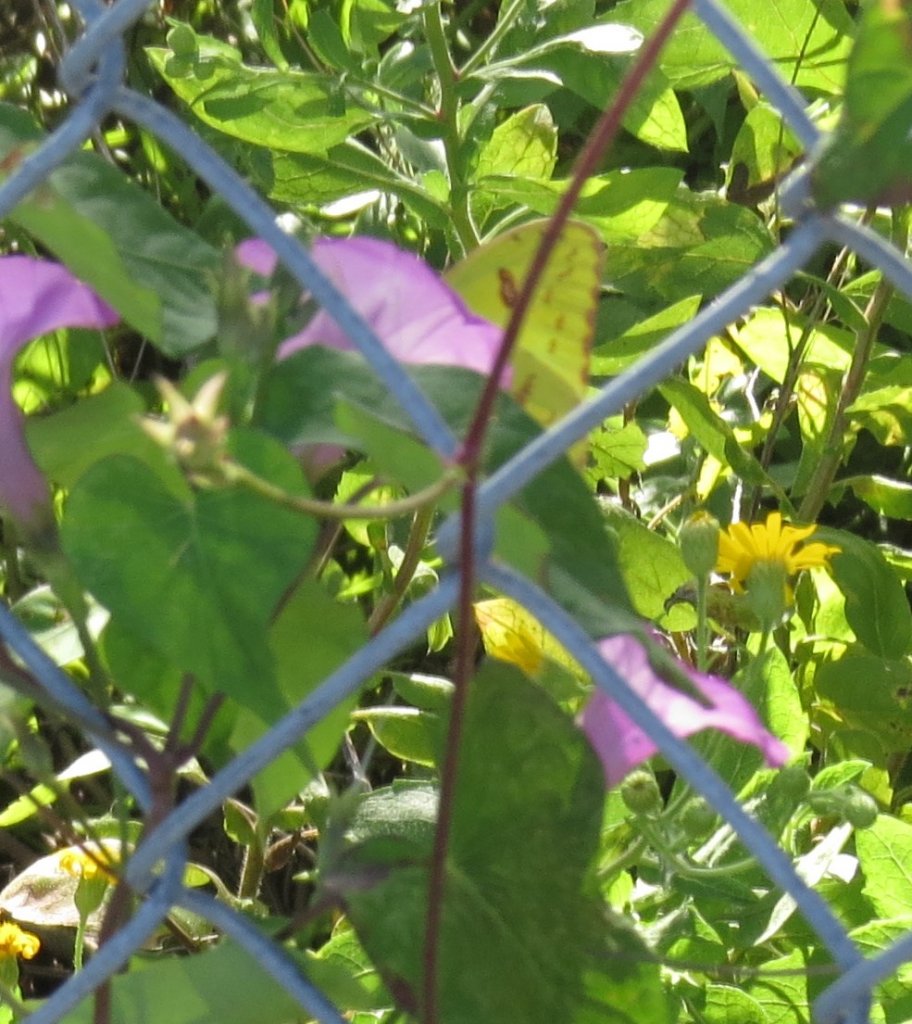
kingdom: Animalia
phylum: Arthropoda
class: Insecta
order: Lepidoptera
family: Pieridae
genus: Phoebis
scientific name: Phoebis sennae
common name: Cloudless Sulphur
